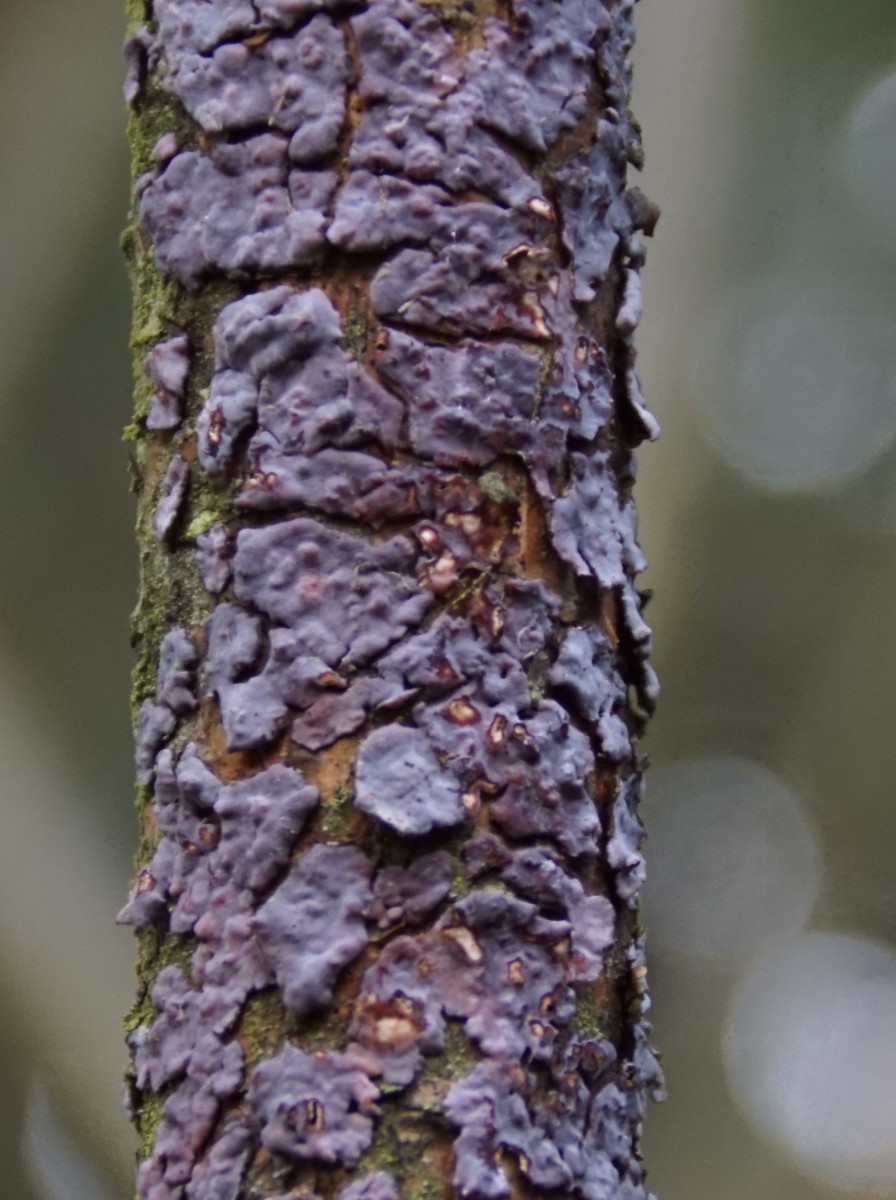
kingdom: Fungi
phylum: Basidiomycota
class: Agaricomycetes
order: Russulales
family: Peniophoraceae
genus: Peniophora
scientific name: Peniophora pini
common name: fyrre-voksskind
